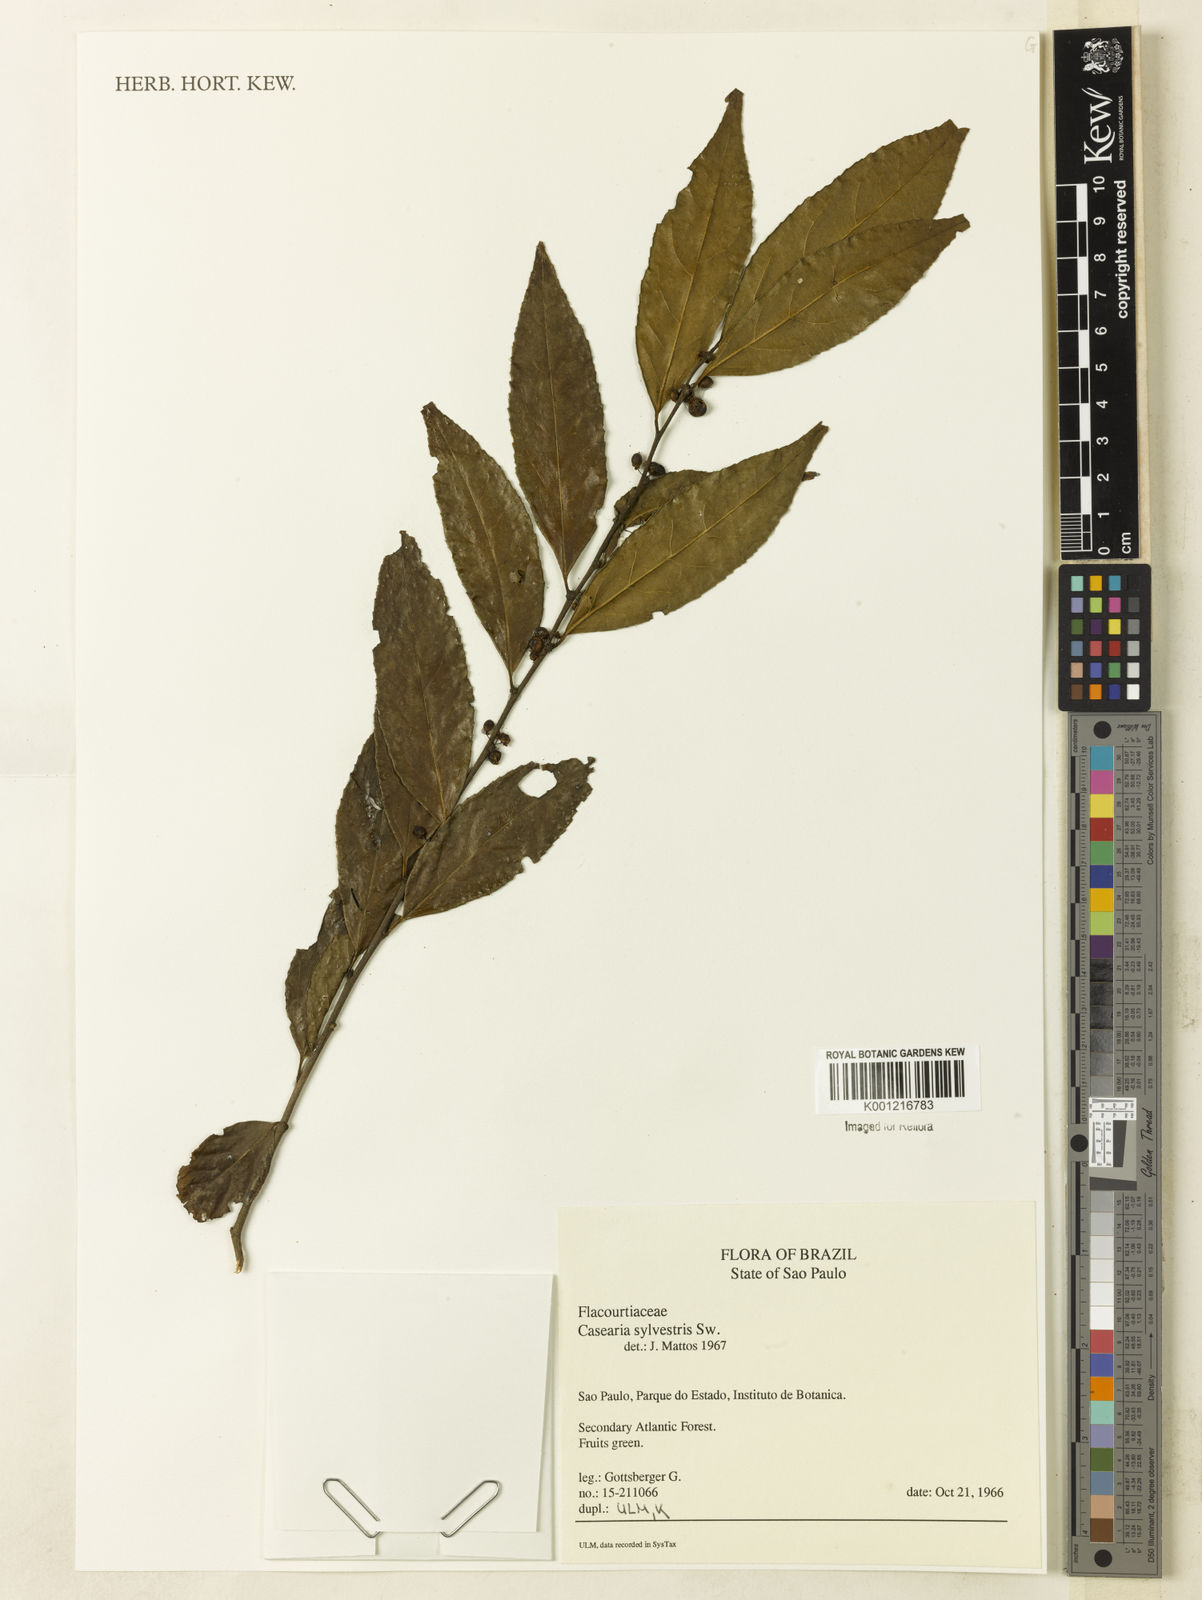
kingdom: Plantae
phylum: Tracheophyta
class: Magnoliopsida
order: Malpighiales
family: Salicaceae
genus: Casearia
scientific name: Casearia sylvestris
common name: Wild sage
